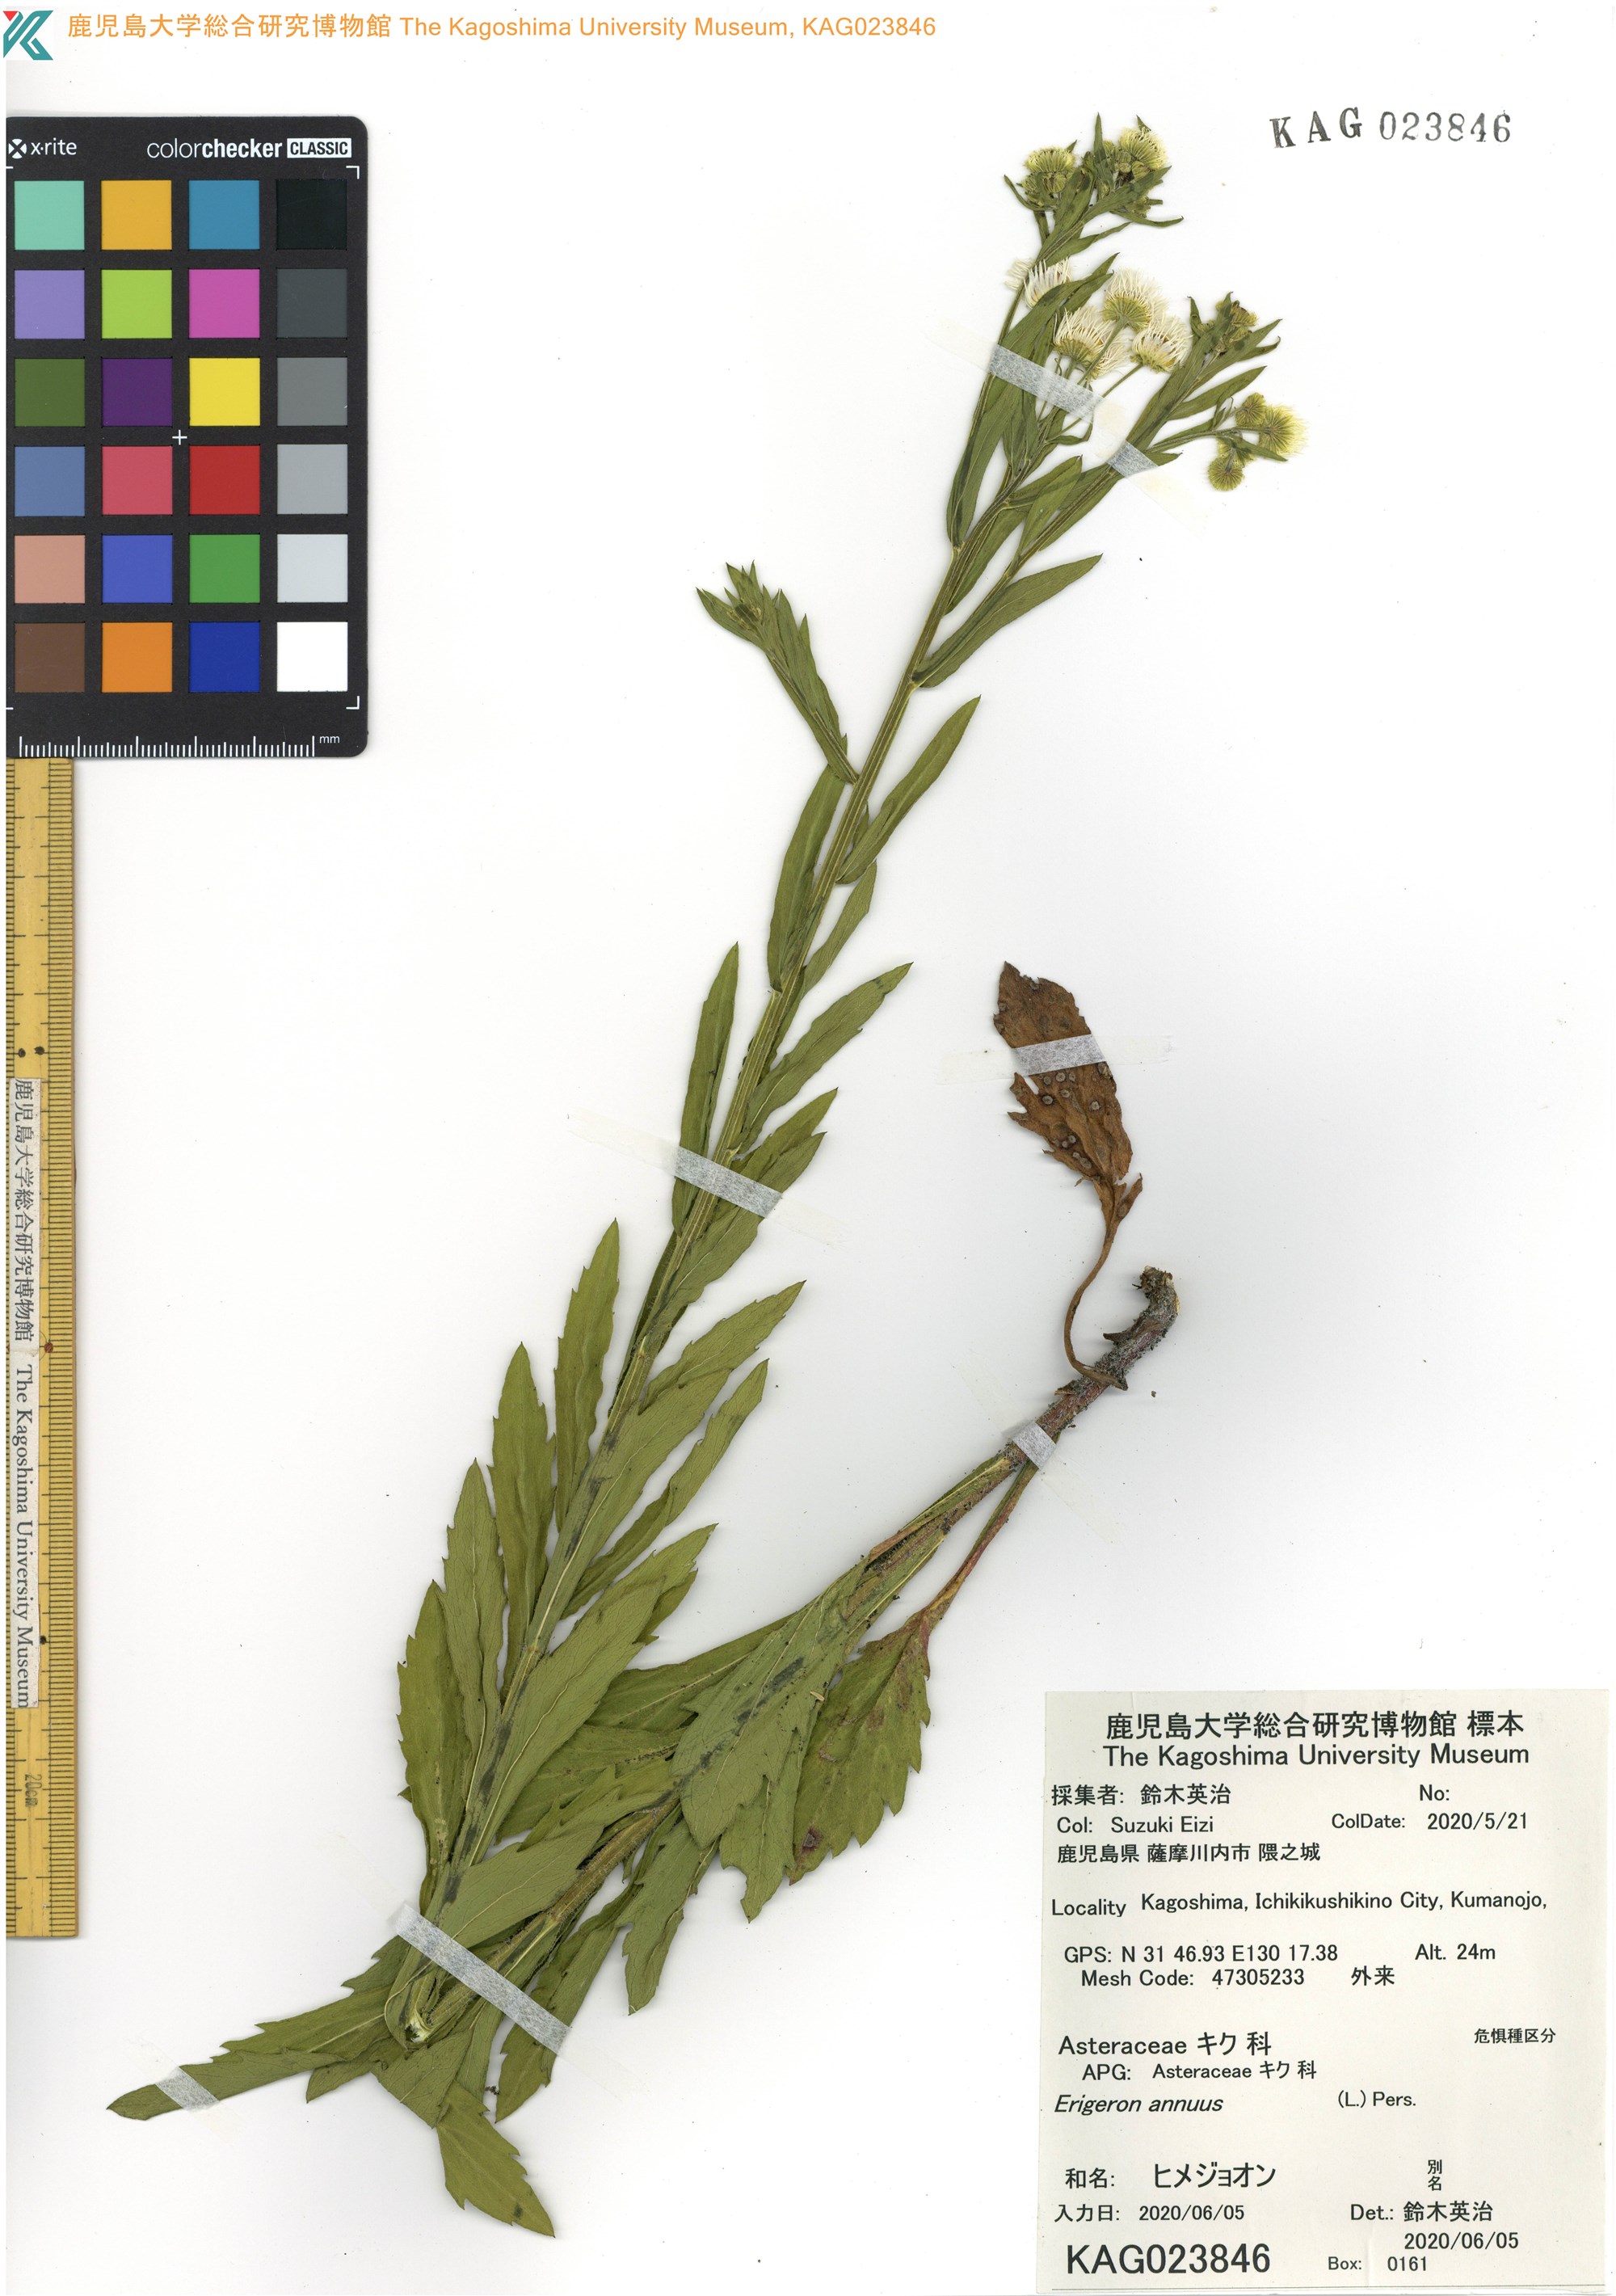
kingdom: Plantae
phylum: Tracheophyta
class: Magnoliopsida
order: Asterales
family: Asteraceae
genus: Erigeron
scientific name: Erigeron annuus
